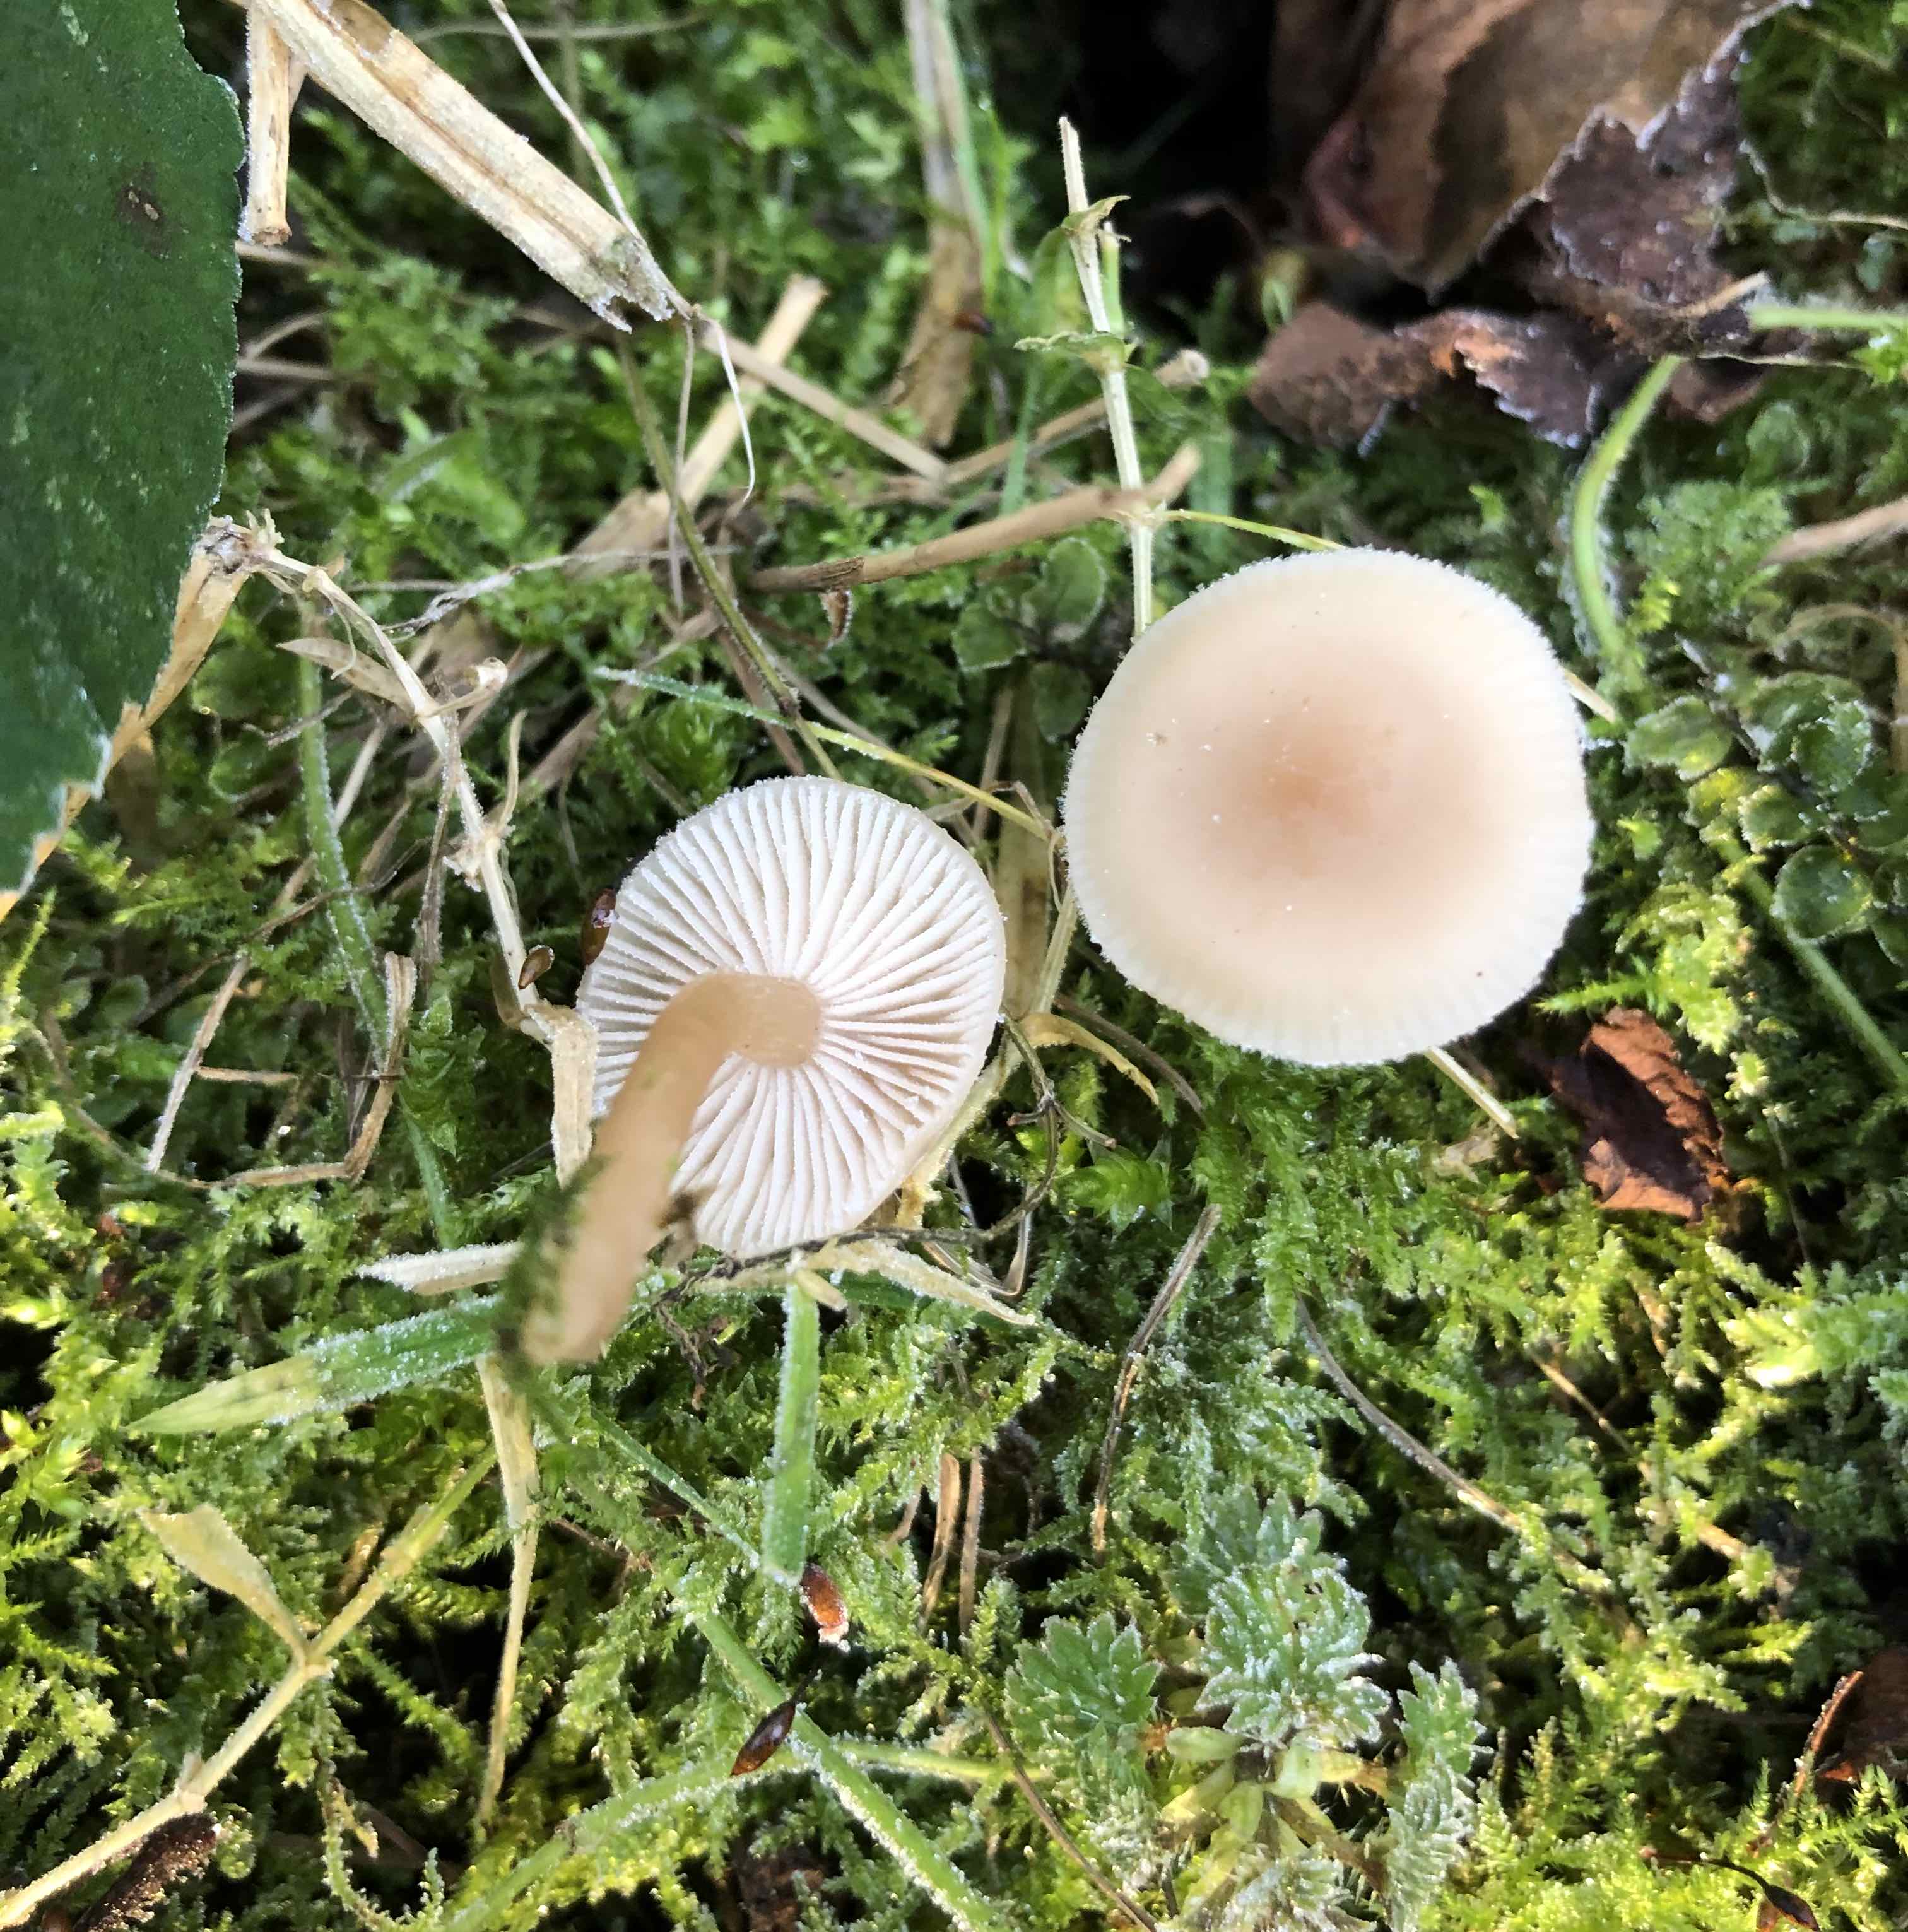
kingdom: Fungi
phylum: Basidiomycota
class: Agaricomycetes
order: Agaricales
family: Tricholomataceae
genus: Clitocybe
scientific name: Clitocybe fragrans
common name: vellugtende tragthat
